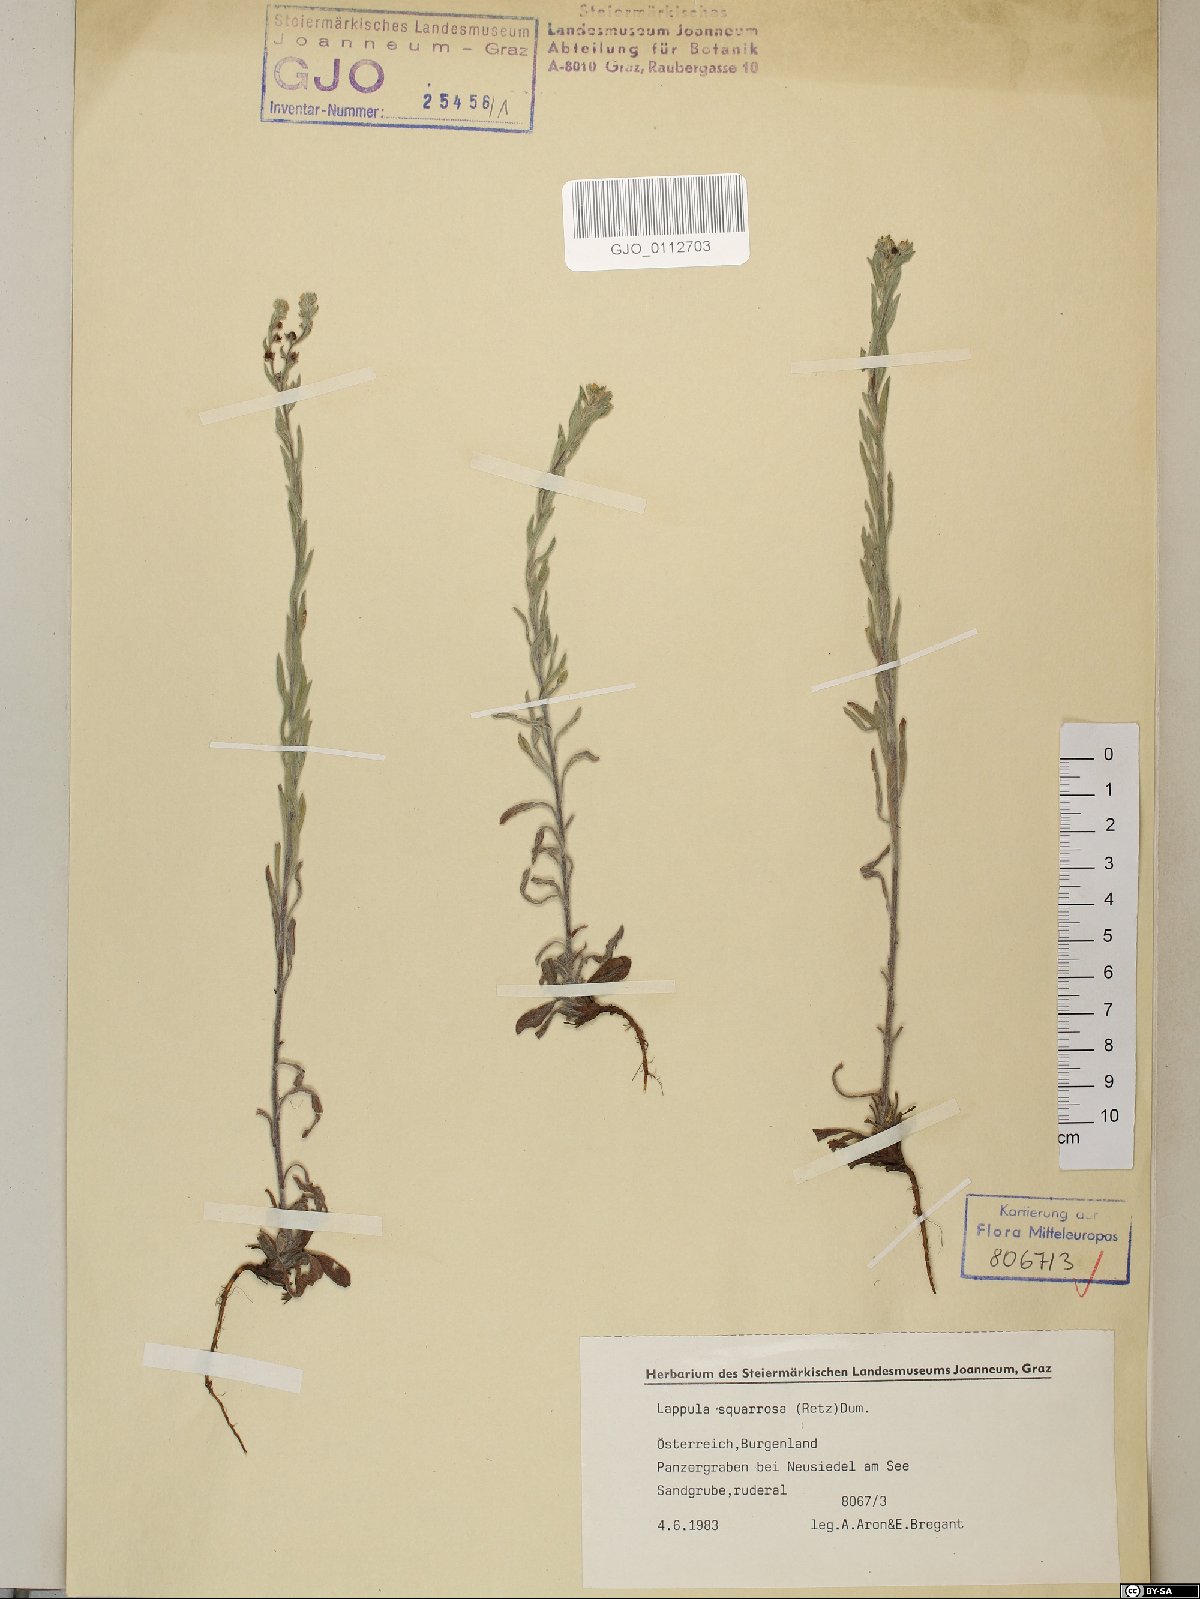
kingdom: Plantae
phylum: Tracheophyta
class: Magnoliopsida
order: Boraginales
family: Boraginaceae
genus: Lappula
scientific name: Lappula squarrosa
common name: European stickseed
